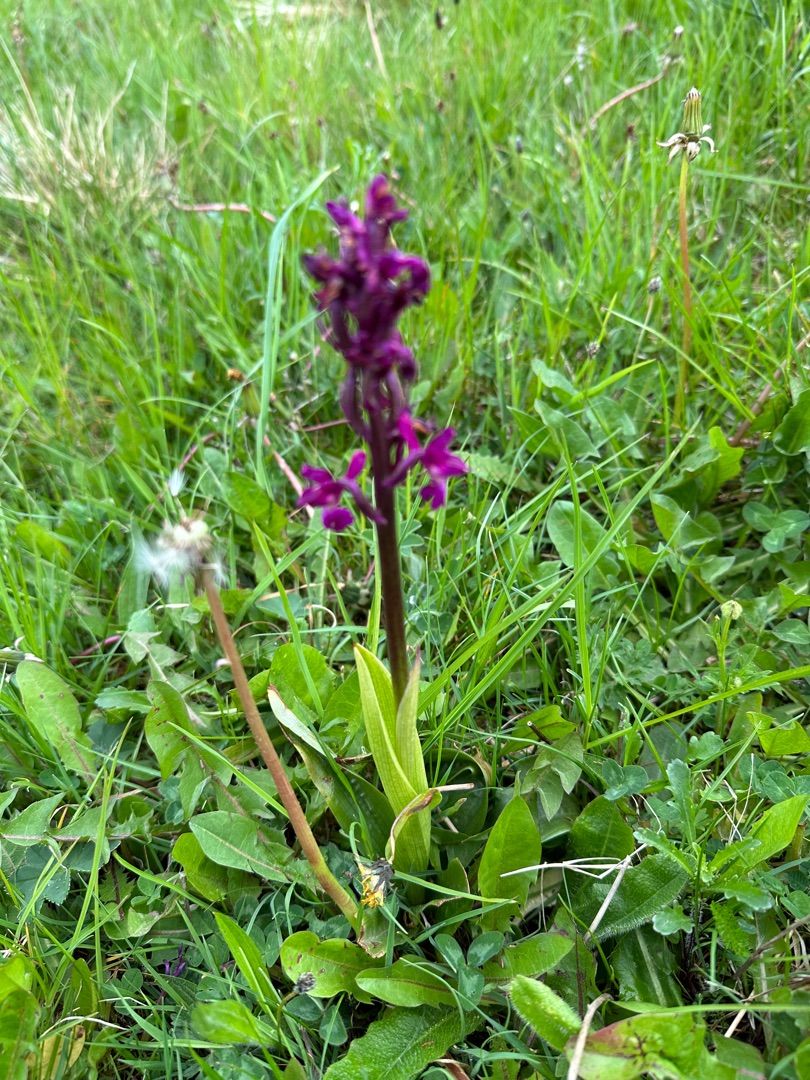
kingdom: Plantae
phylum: Tracheophyta
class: Liliopsida
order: Asparagales
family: Orchidaceae
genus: Orchis
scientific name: Orchis mascula
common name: Tyndakset gøgeurt
